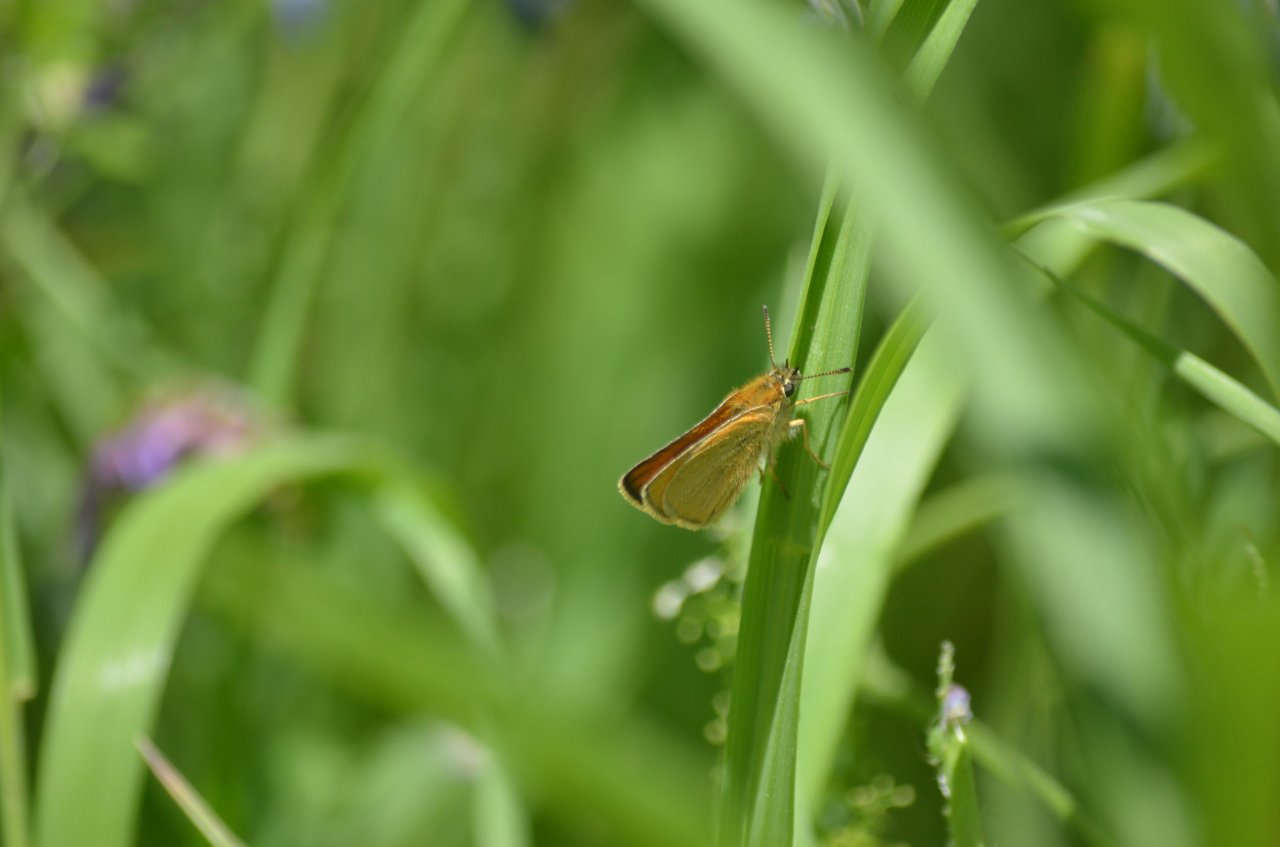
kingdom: Animalia
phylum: Arthropoda
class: Insecta
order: Lepidoptera
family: Hesperiidae
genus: Thymelicus
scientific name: Thymelicus lineola
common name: European Skipper
